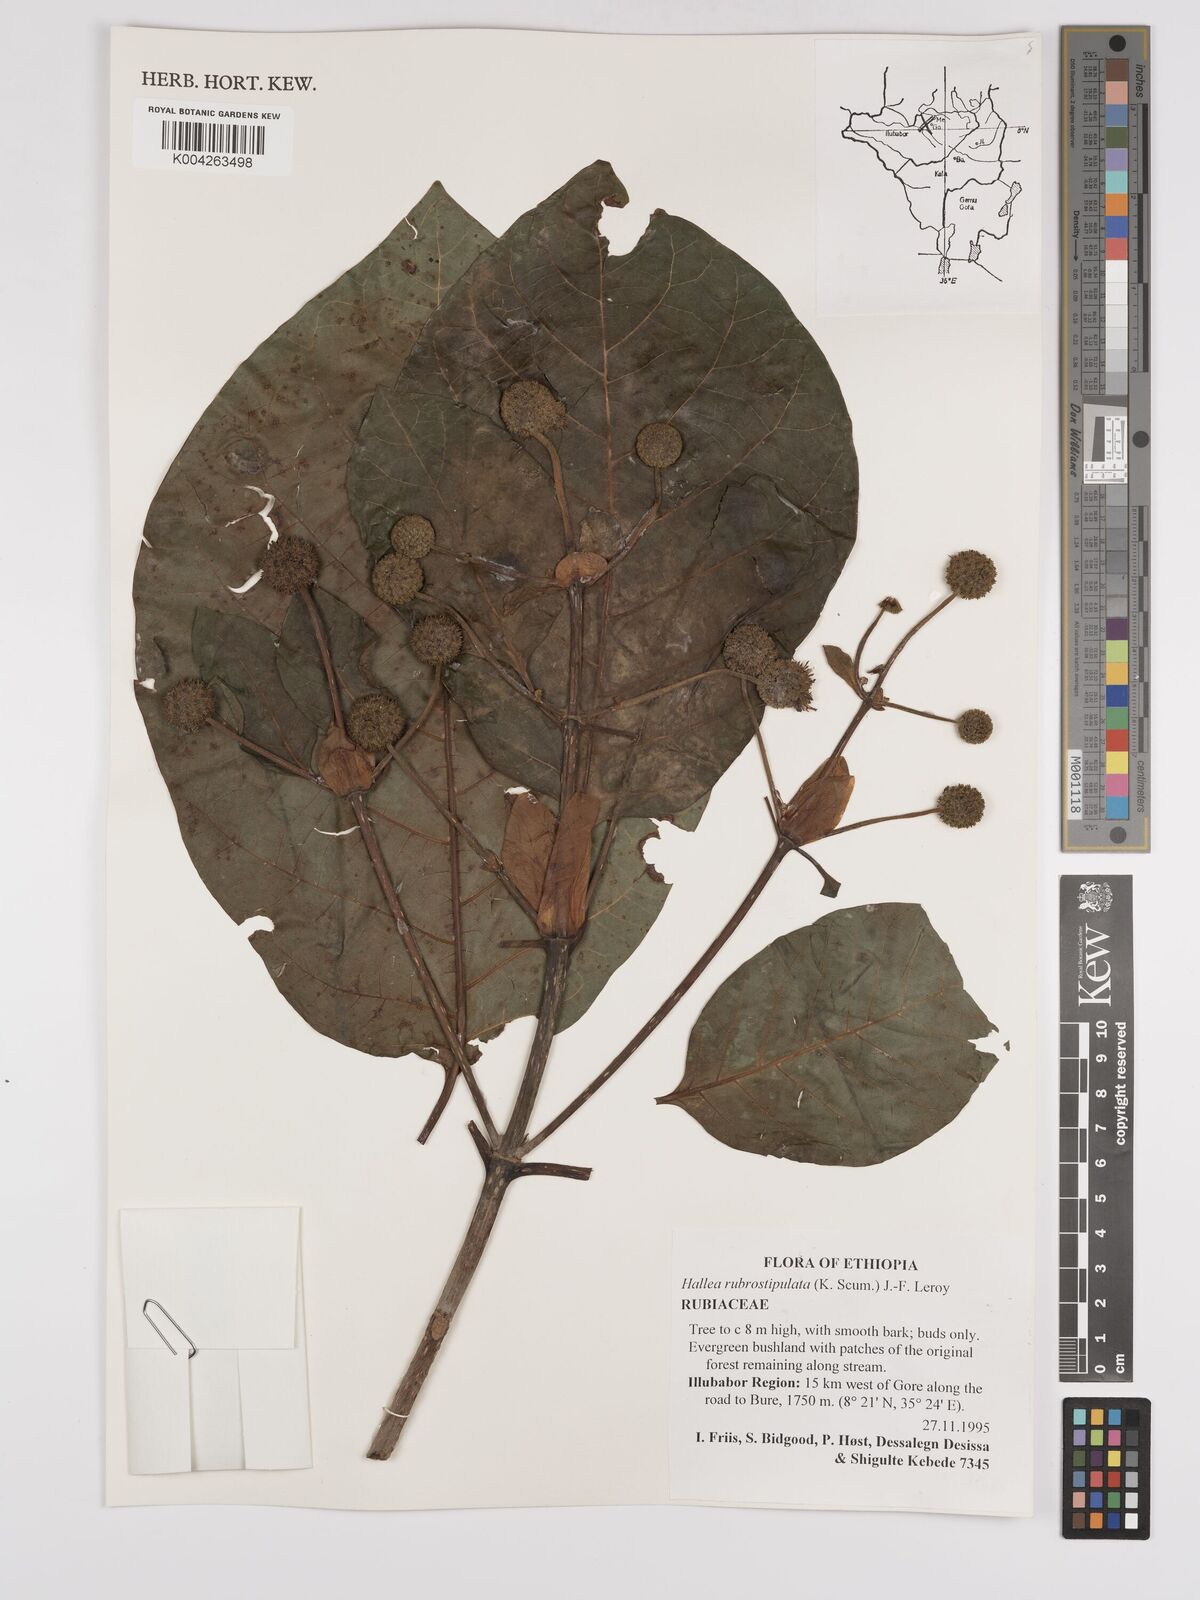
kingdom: Plantae
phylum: Tracheophyta
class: Magnoliopsida
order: Gentianales
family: Rubiaceae
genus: Mitragyna
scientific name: Mitragyna rubrostipulata
